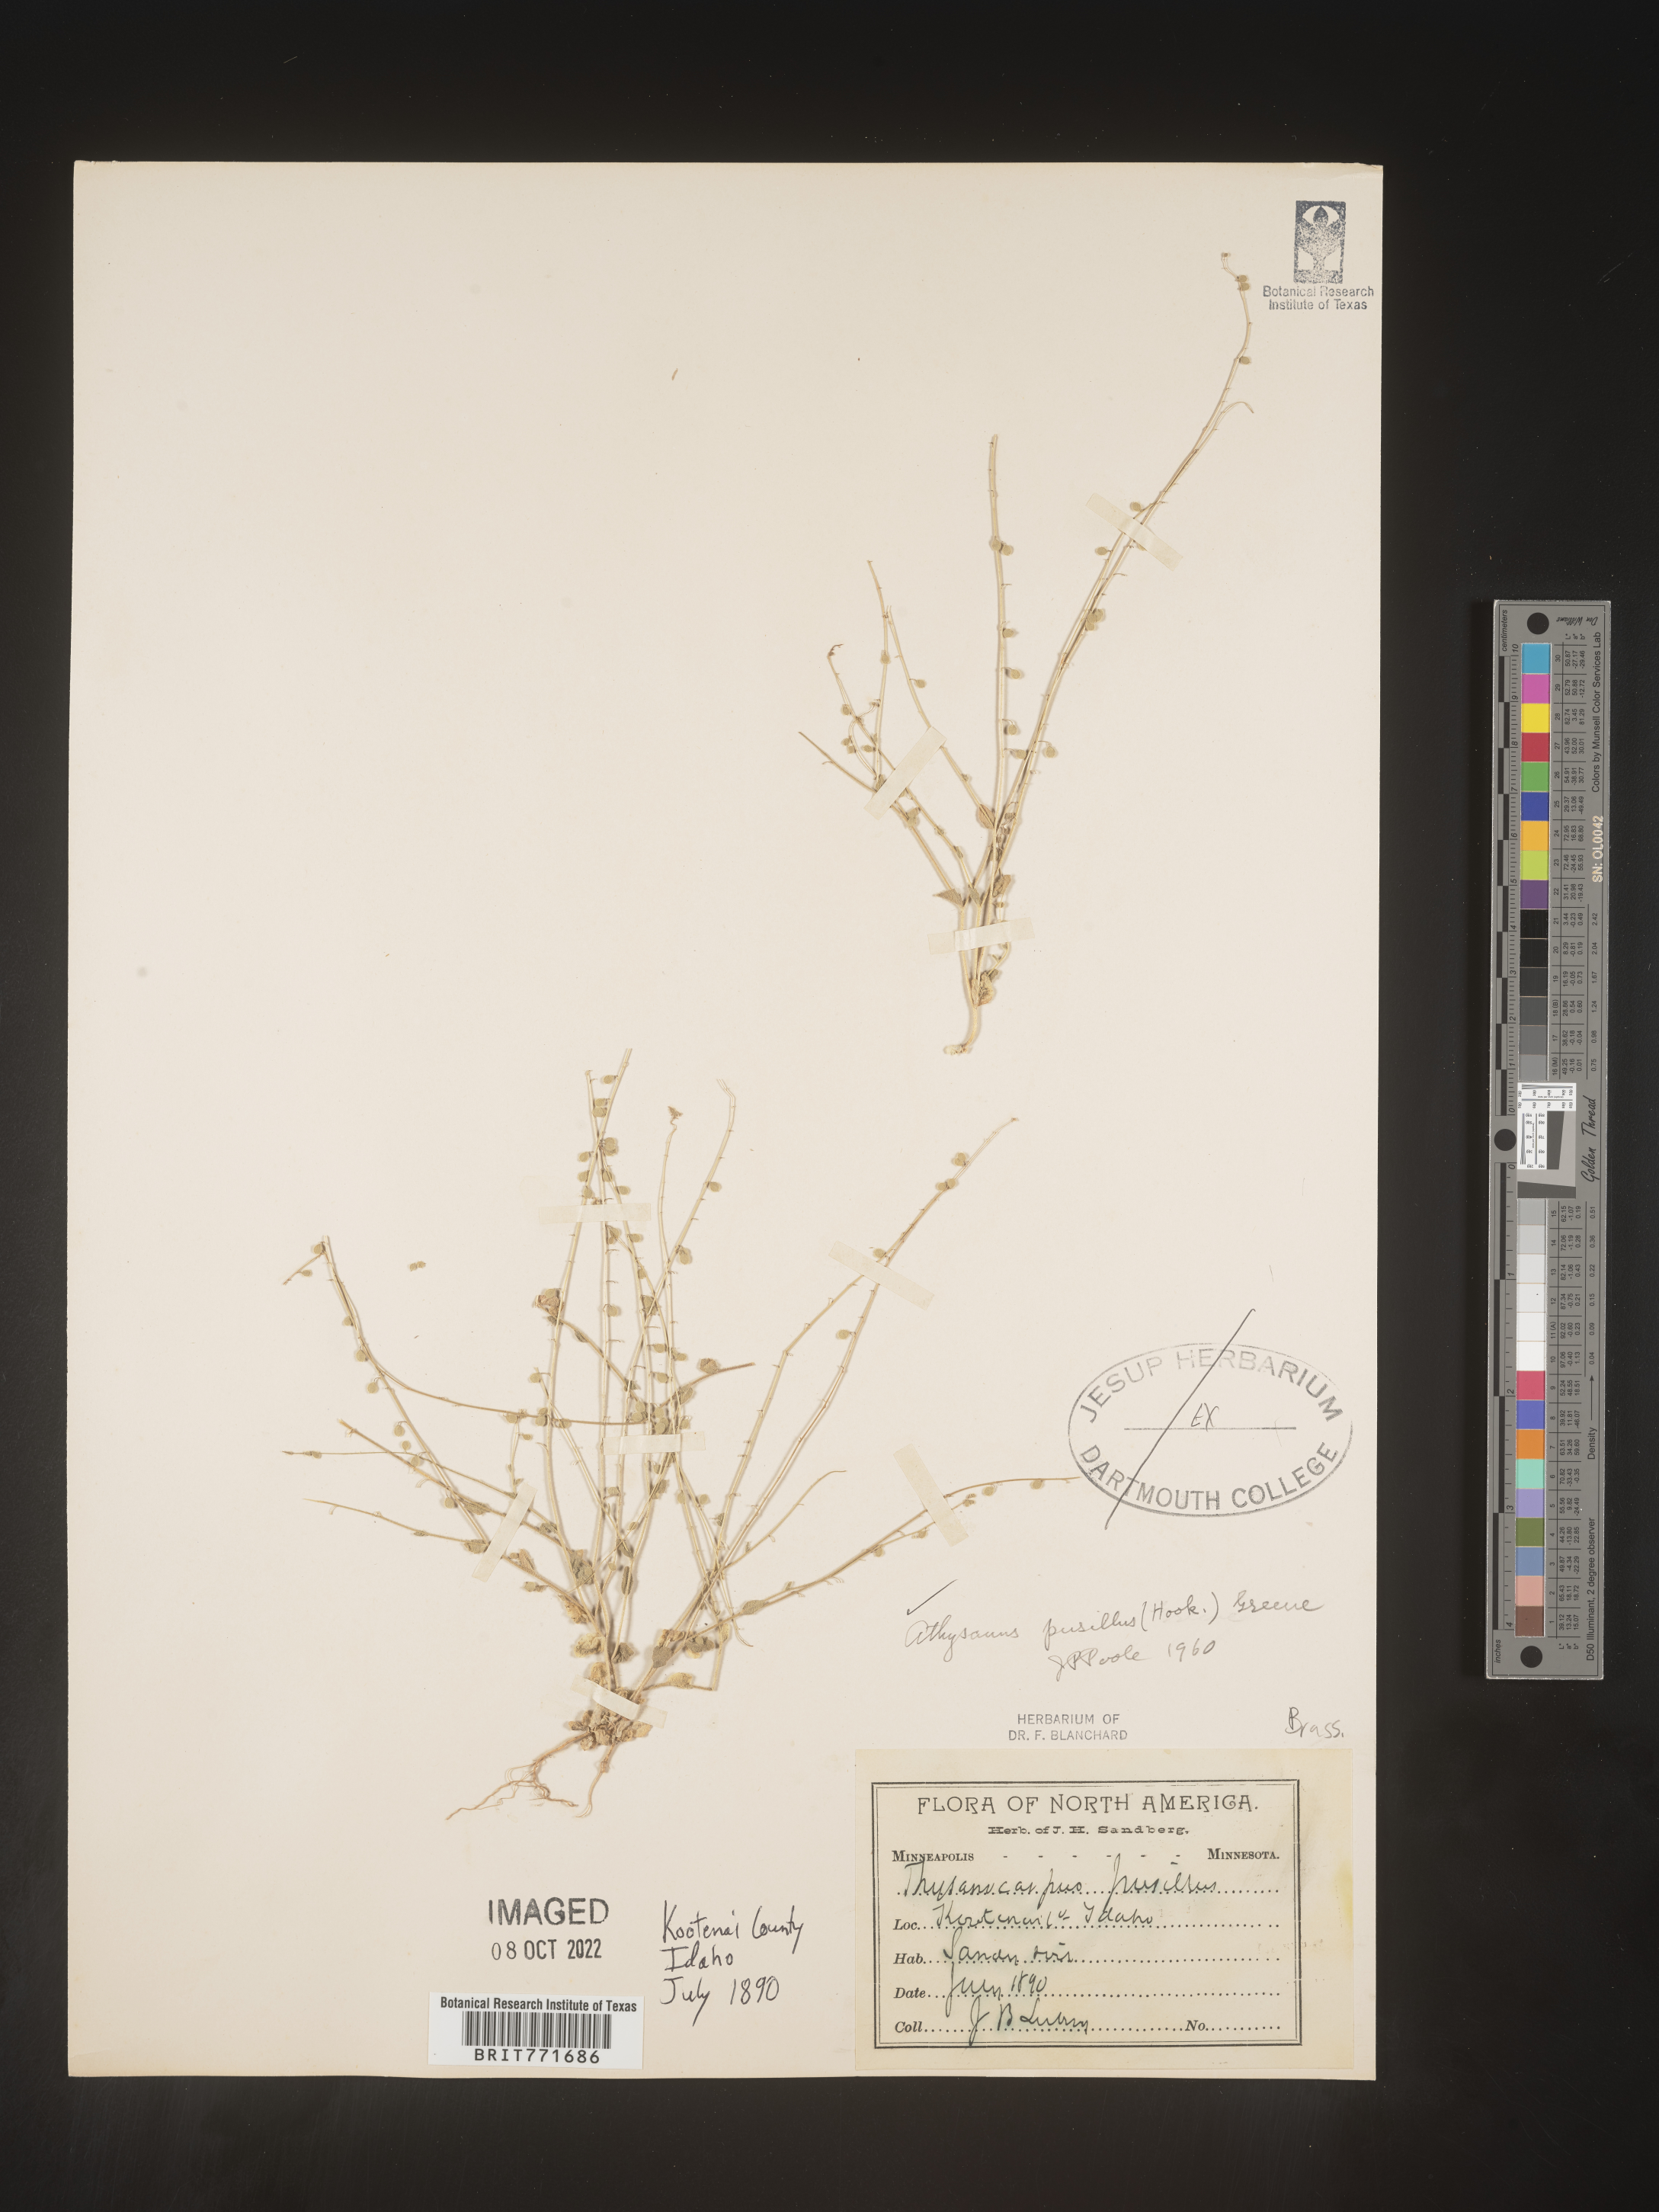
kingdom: Plantae
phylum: Tracheophyta
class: Magnoliopsida
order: Brassicales
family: Brassicaceae
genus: Athysanus
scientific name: Athysanus
